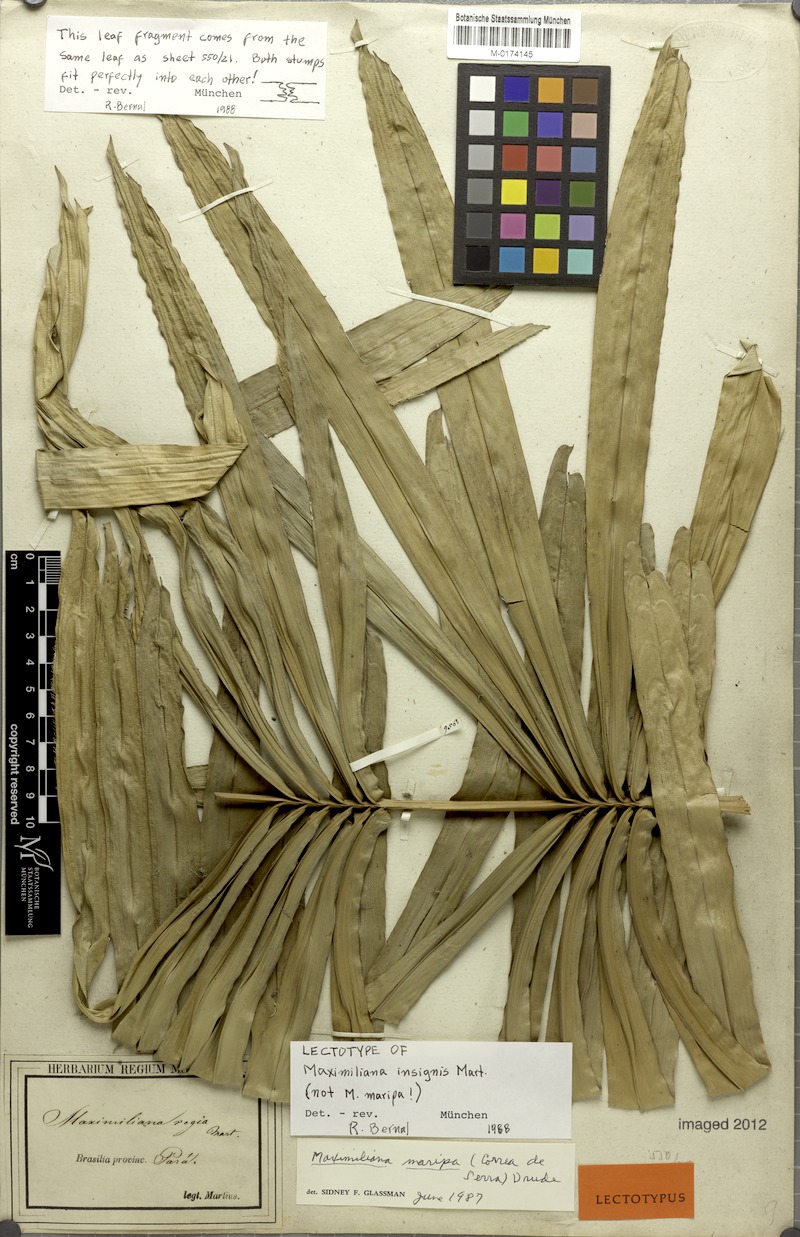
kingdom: Plantae
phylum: Tracheophyta
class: Liliopsida
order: Arecales
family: Arecaceae
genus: Attalea
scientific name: Attalea insignis
